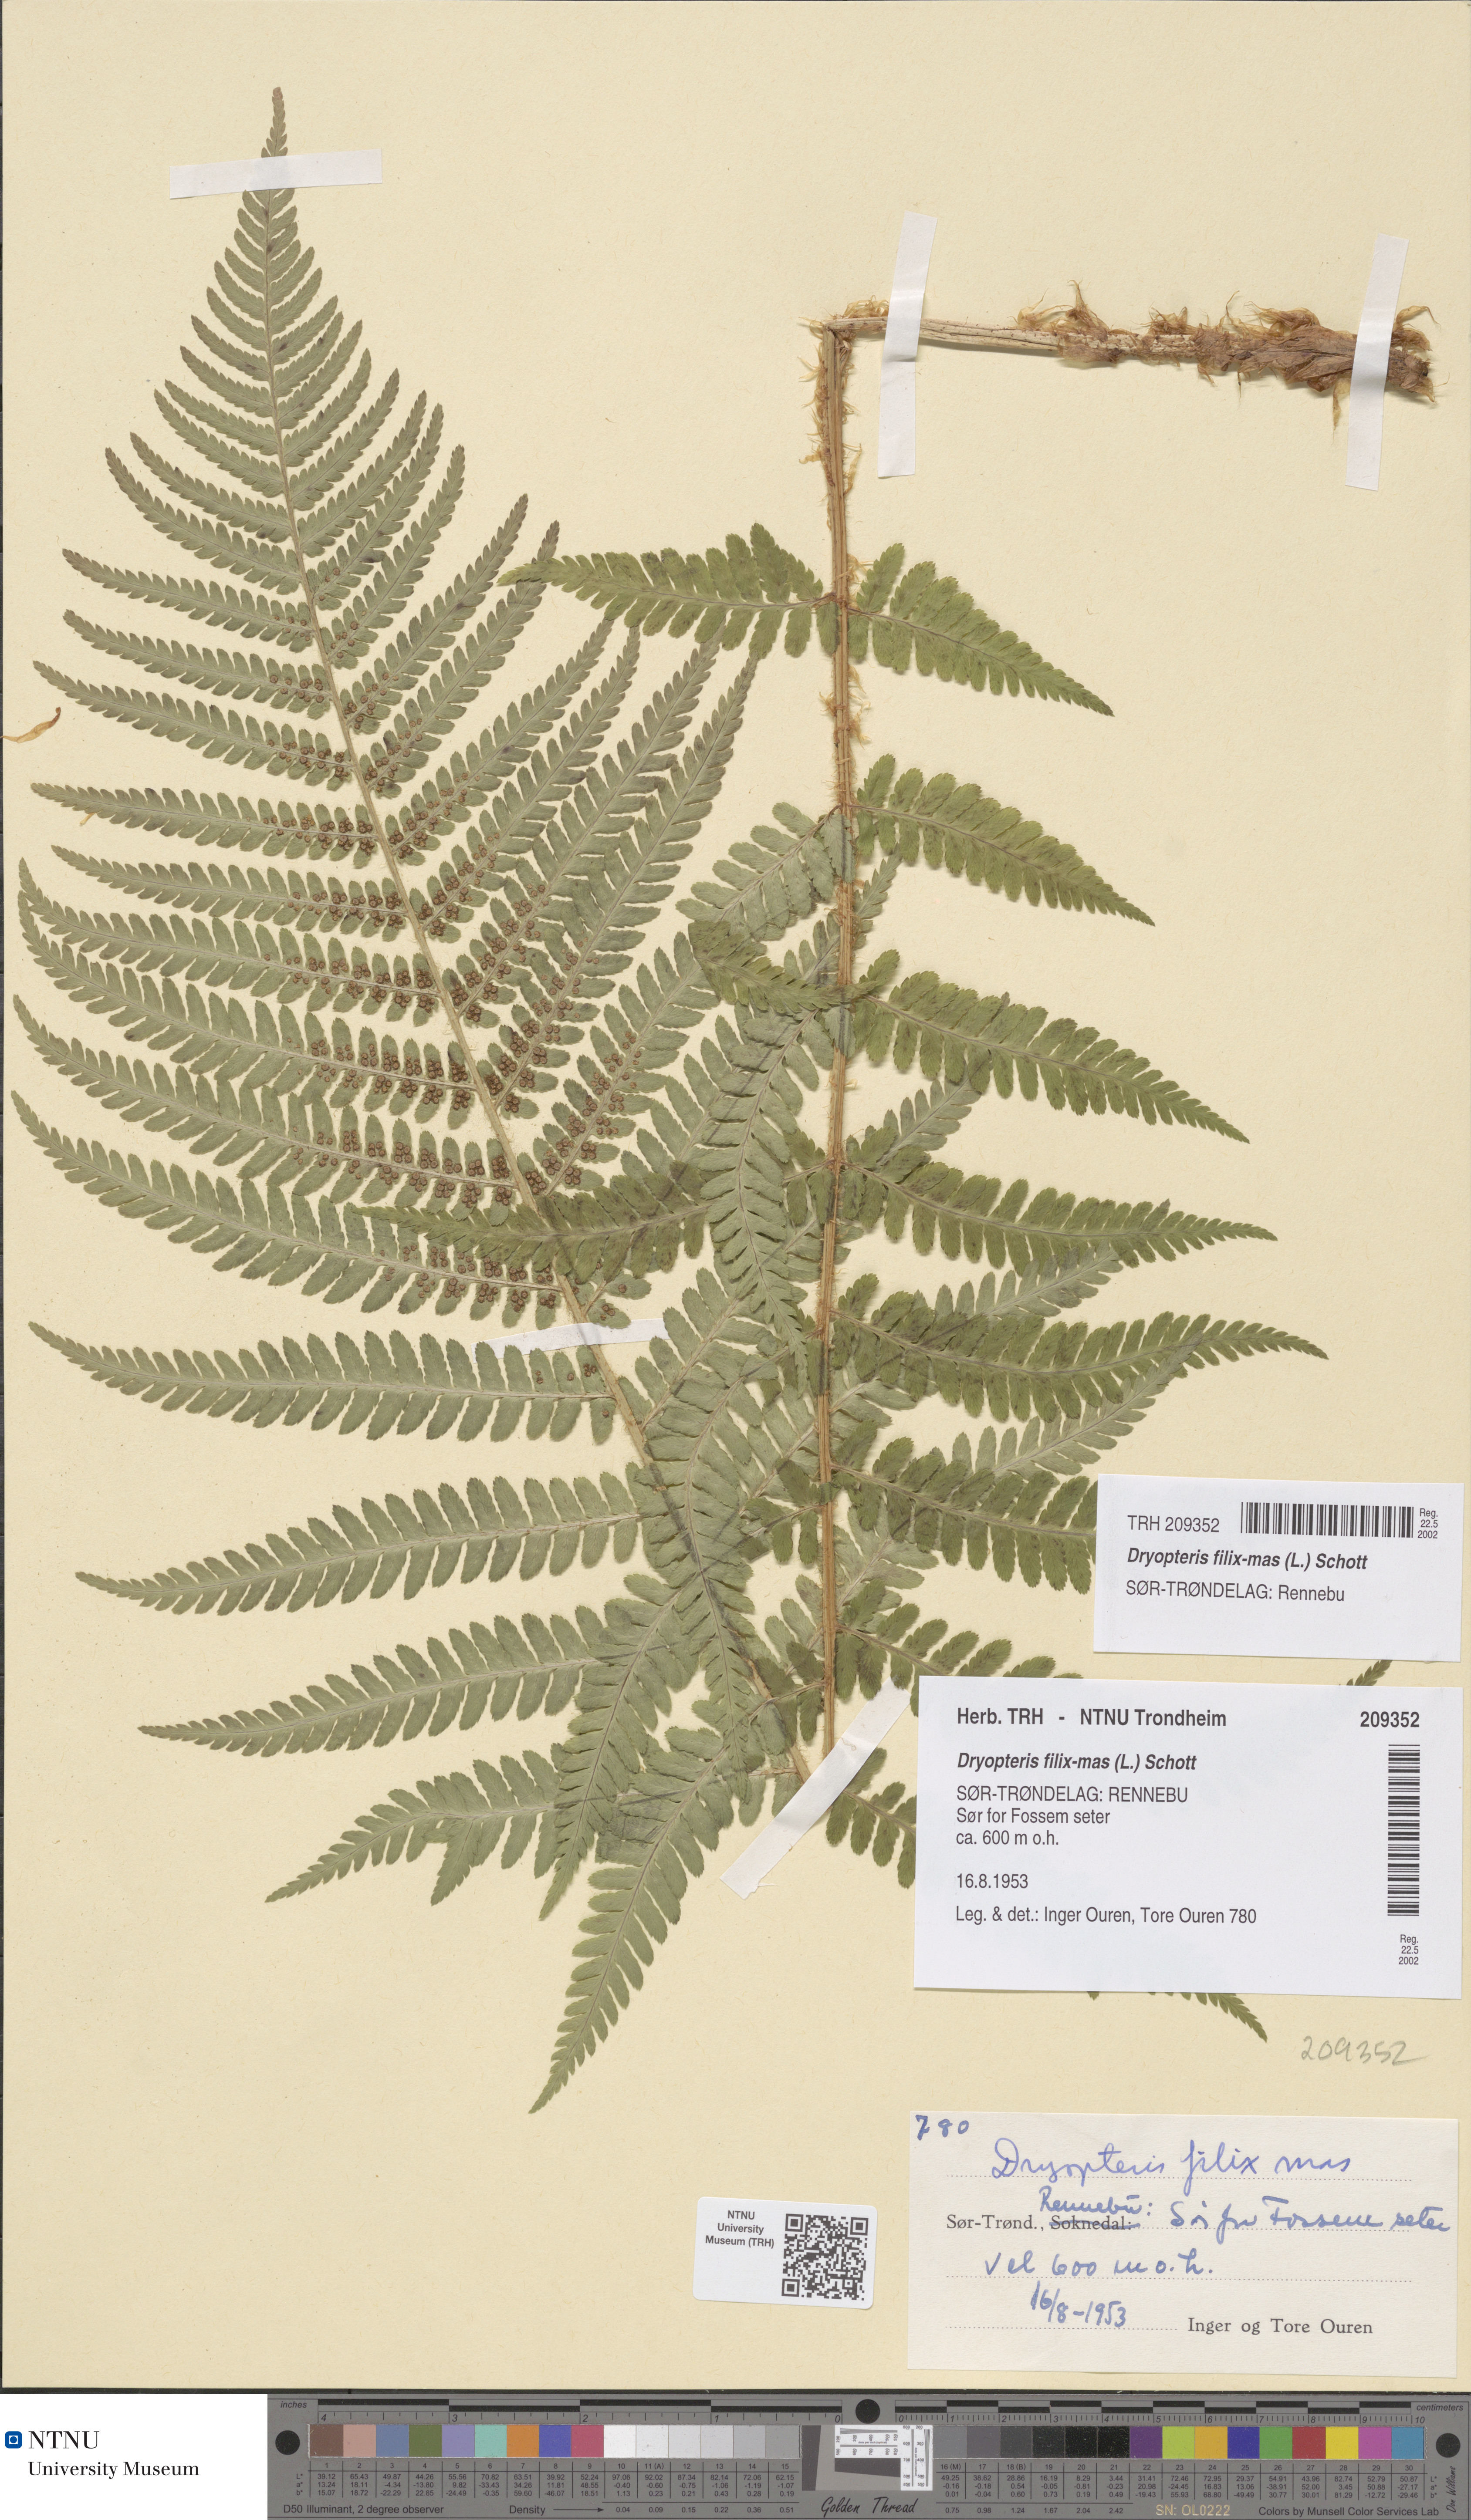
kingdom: Plantae
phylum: Tracheophyta
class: Polypodiopsida
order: Polypodiales
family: Dryopteridaceae
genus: Dryopteris
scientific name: Dryopteris filix-mas
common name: Male fern
